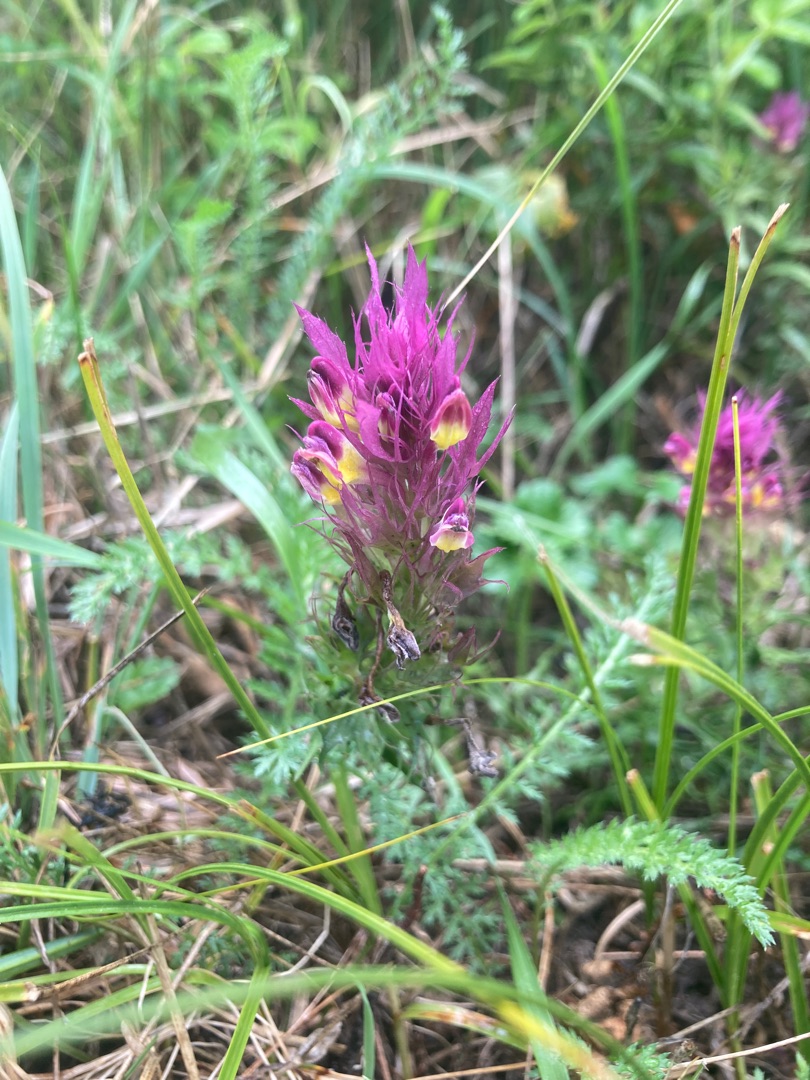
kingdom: Plantae
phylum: Tracheophyta
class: Magnoliopsida
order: Lamiales
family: Orobanchaceae
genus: Melampyrum
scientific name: Melampyrum arvense
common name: Ager-kohvede
